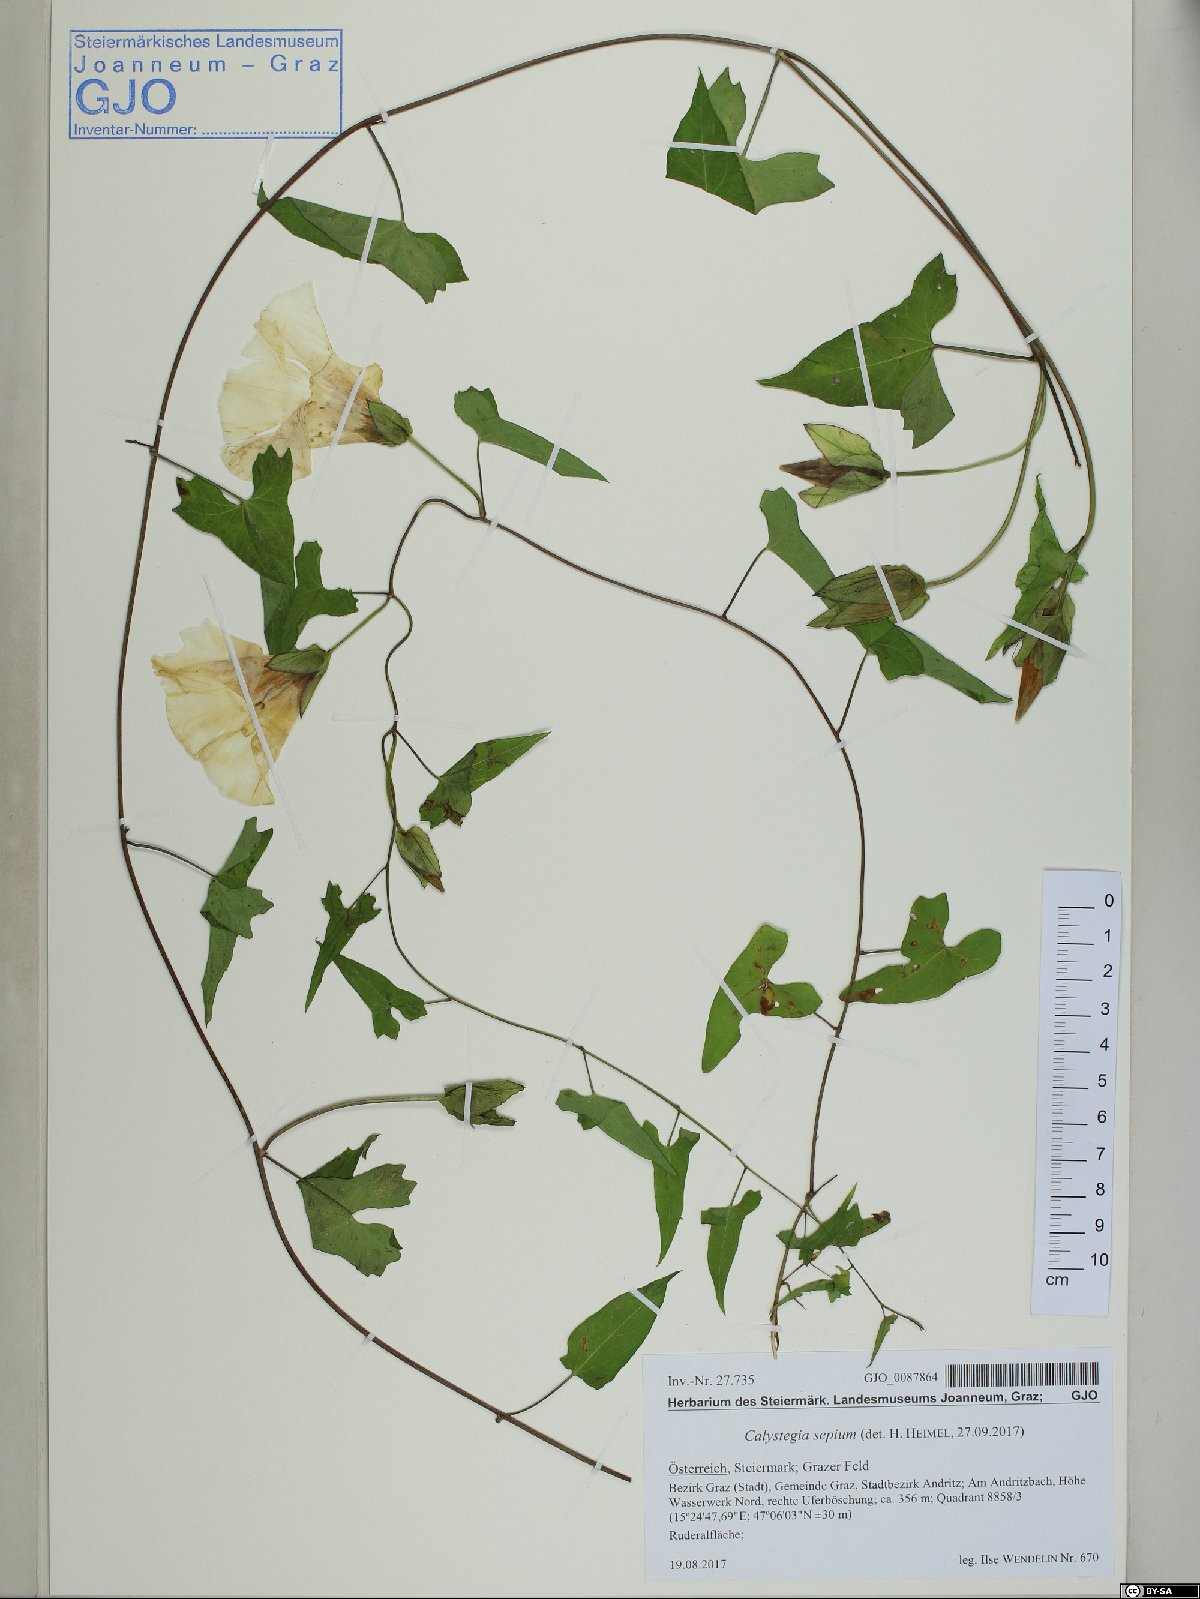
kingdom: Plantae
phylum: Tracheophyta
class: Magnoliopsida
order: Solanales
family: Convolvulaceae
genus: Calystegia
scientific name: Calystegia sepium
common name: Hedge bindweed
